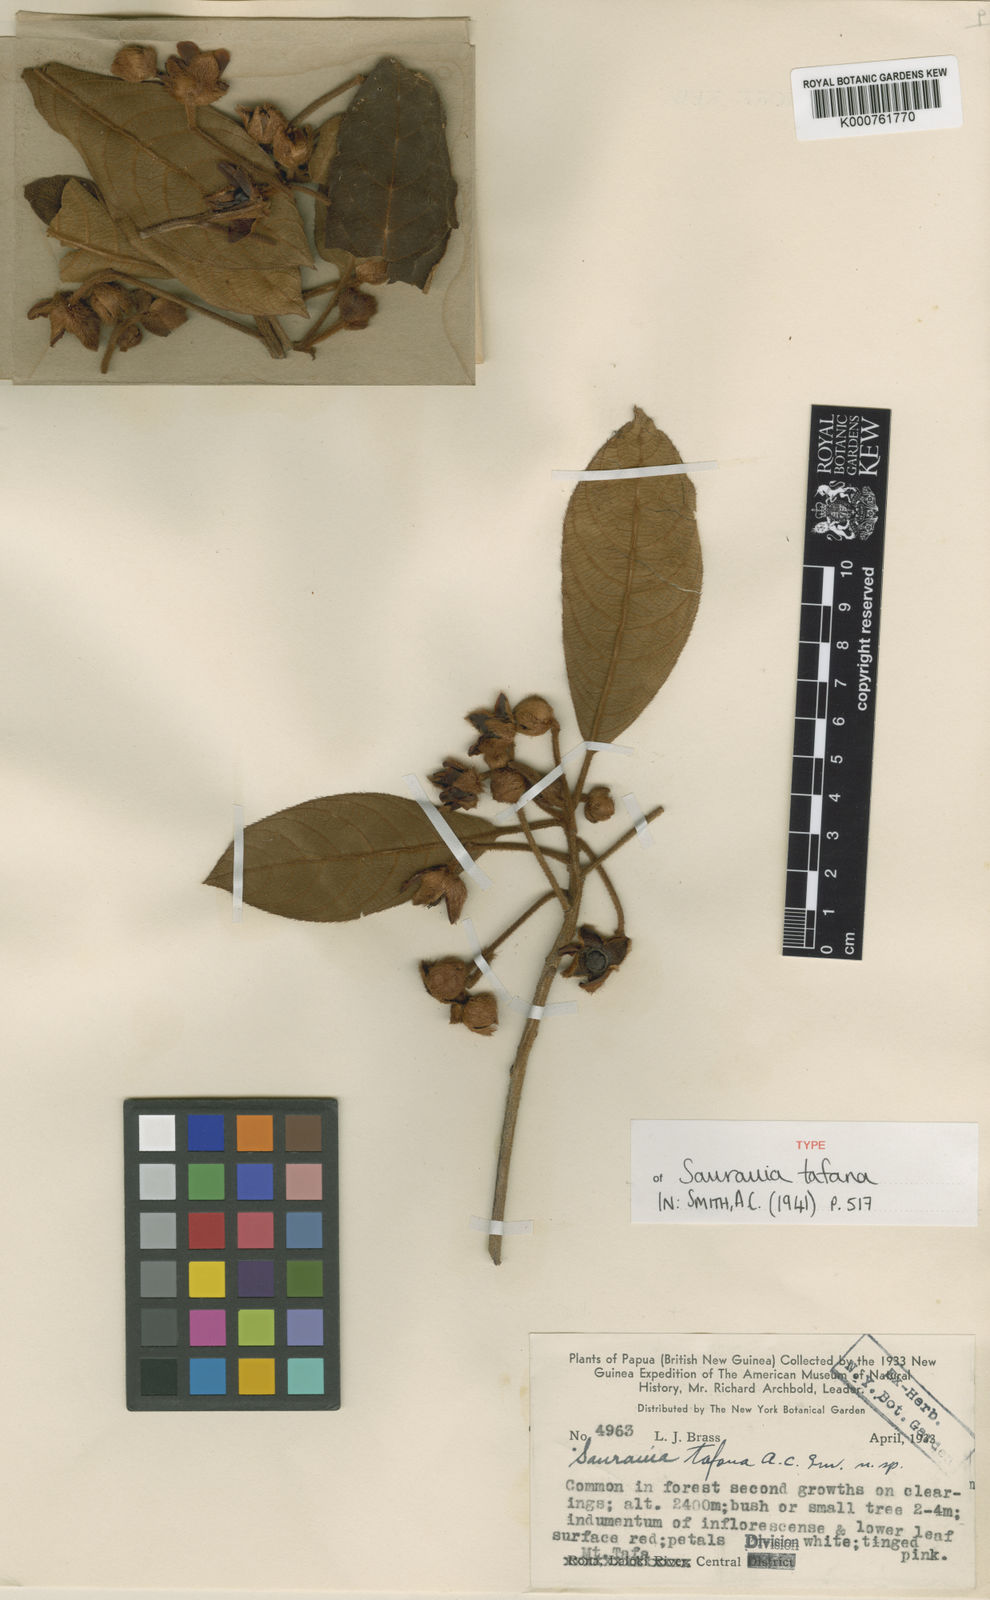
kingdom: Plantae
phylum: Tracheophyta
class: Magnoliopsida
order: Ericales
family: Actinidiaceae
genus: Saurauia
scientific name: Saurauia tafana
